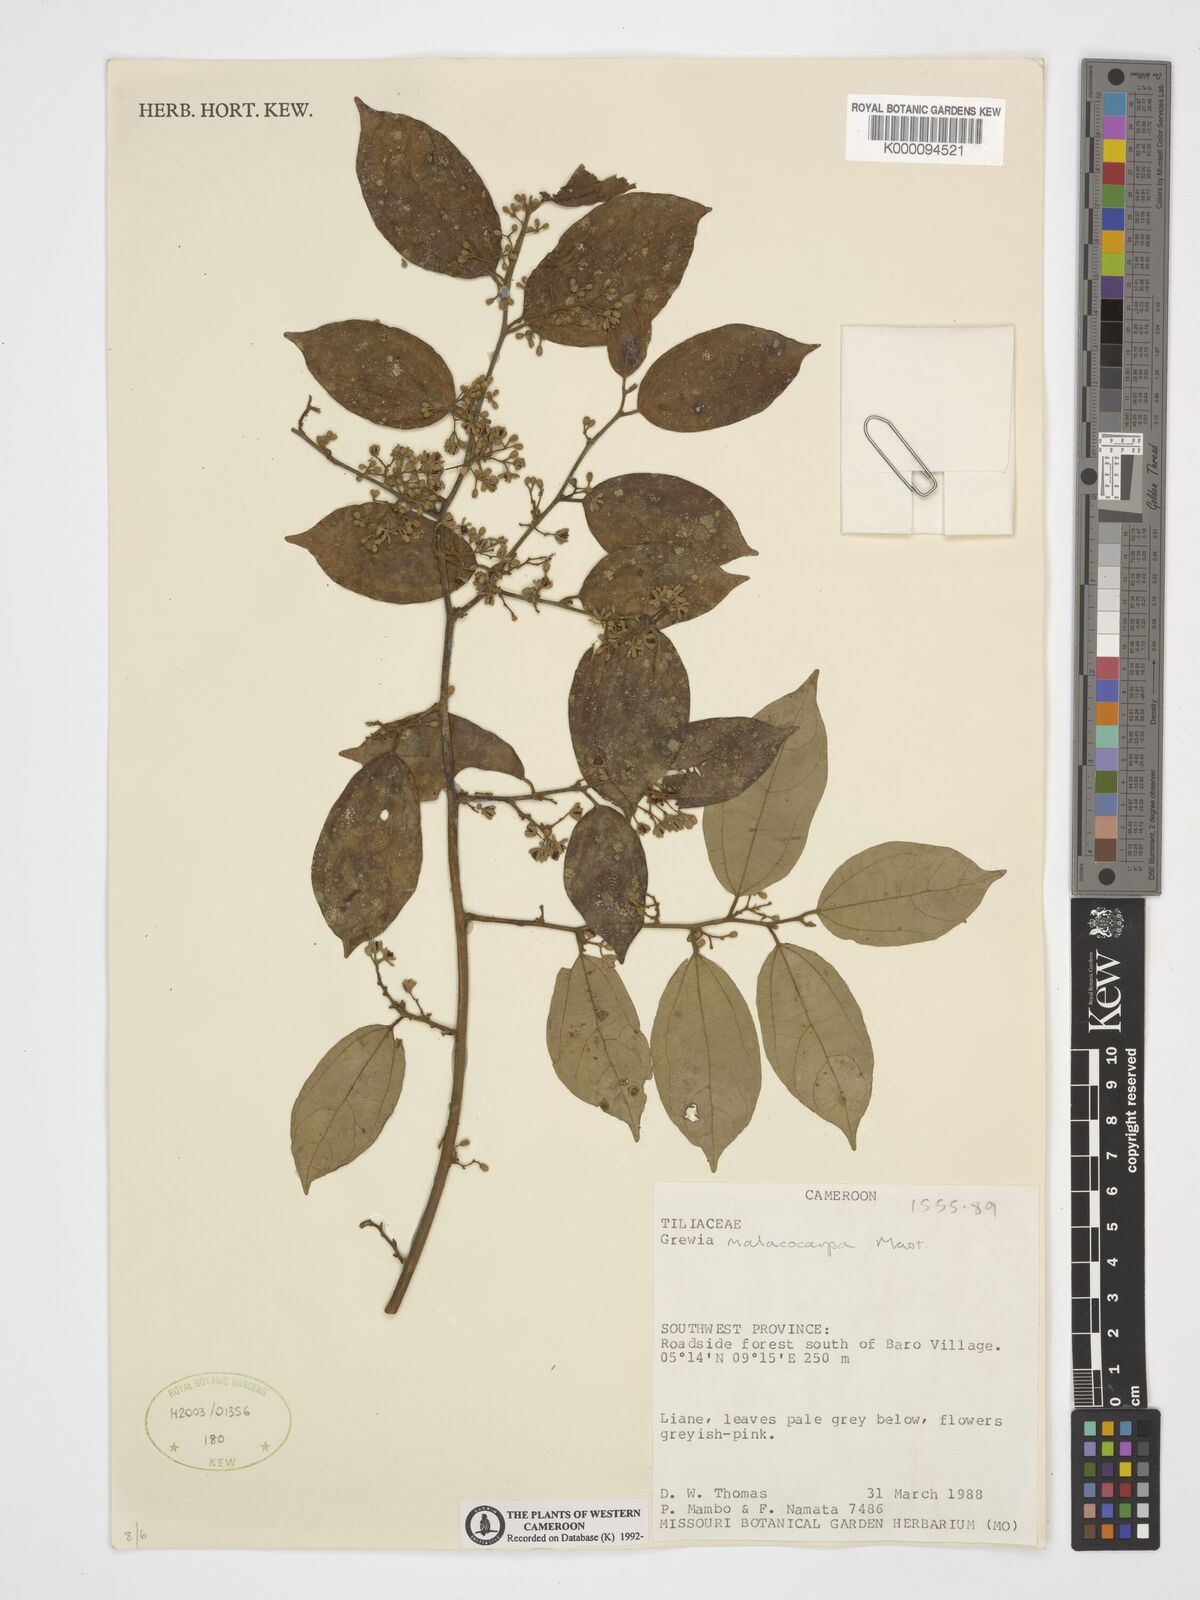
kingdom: Plantae
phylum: Tracheophyta
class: Magnoliopsida
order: Malvales
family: Malvaceae
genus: Microcos
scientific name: Microcos malacocarpa
